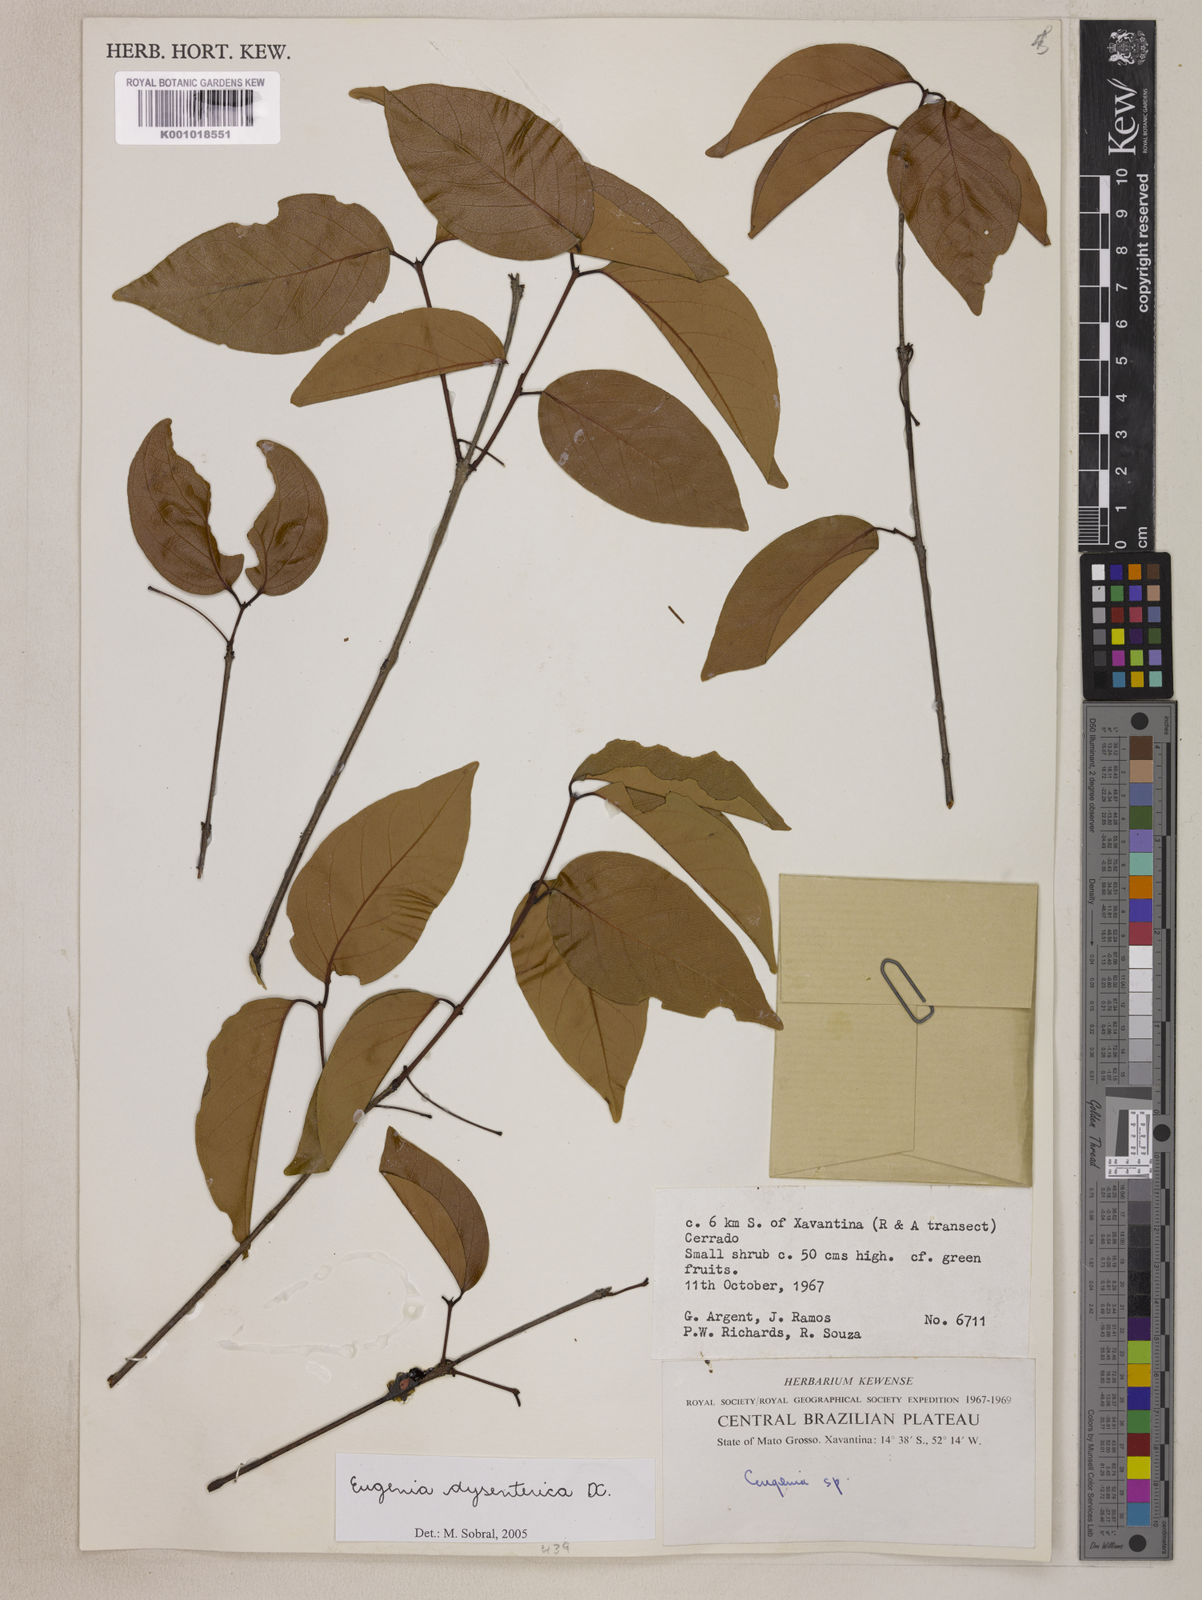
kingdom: Plantae
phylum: Tracheophyta
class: Magnoliopsida
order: Myrtales
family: Myrtaceae
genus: Eugenia
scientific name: Eugenia dysenterica
